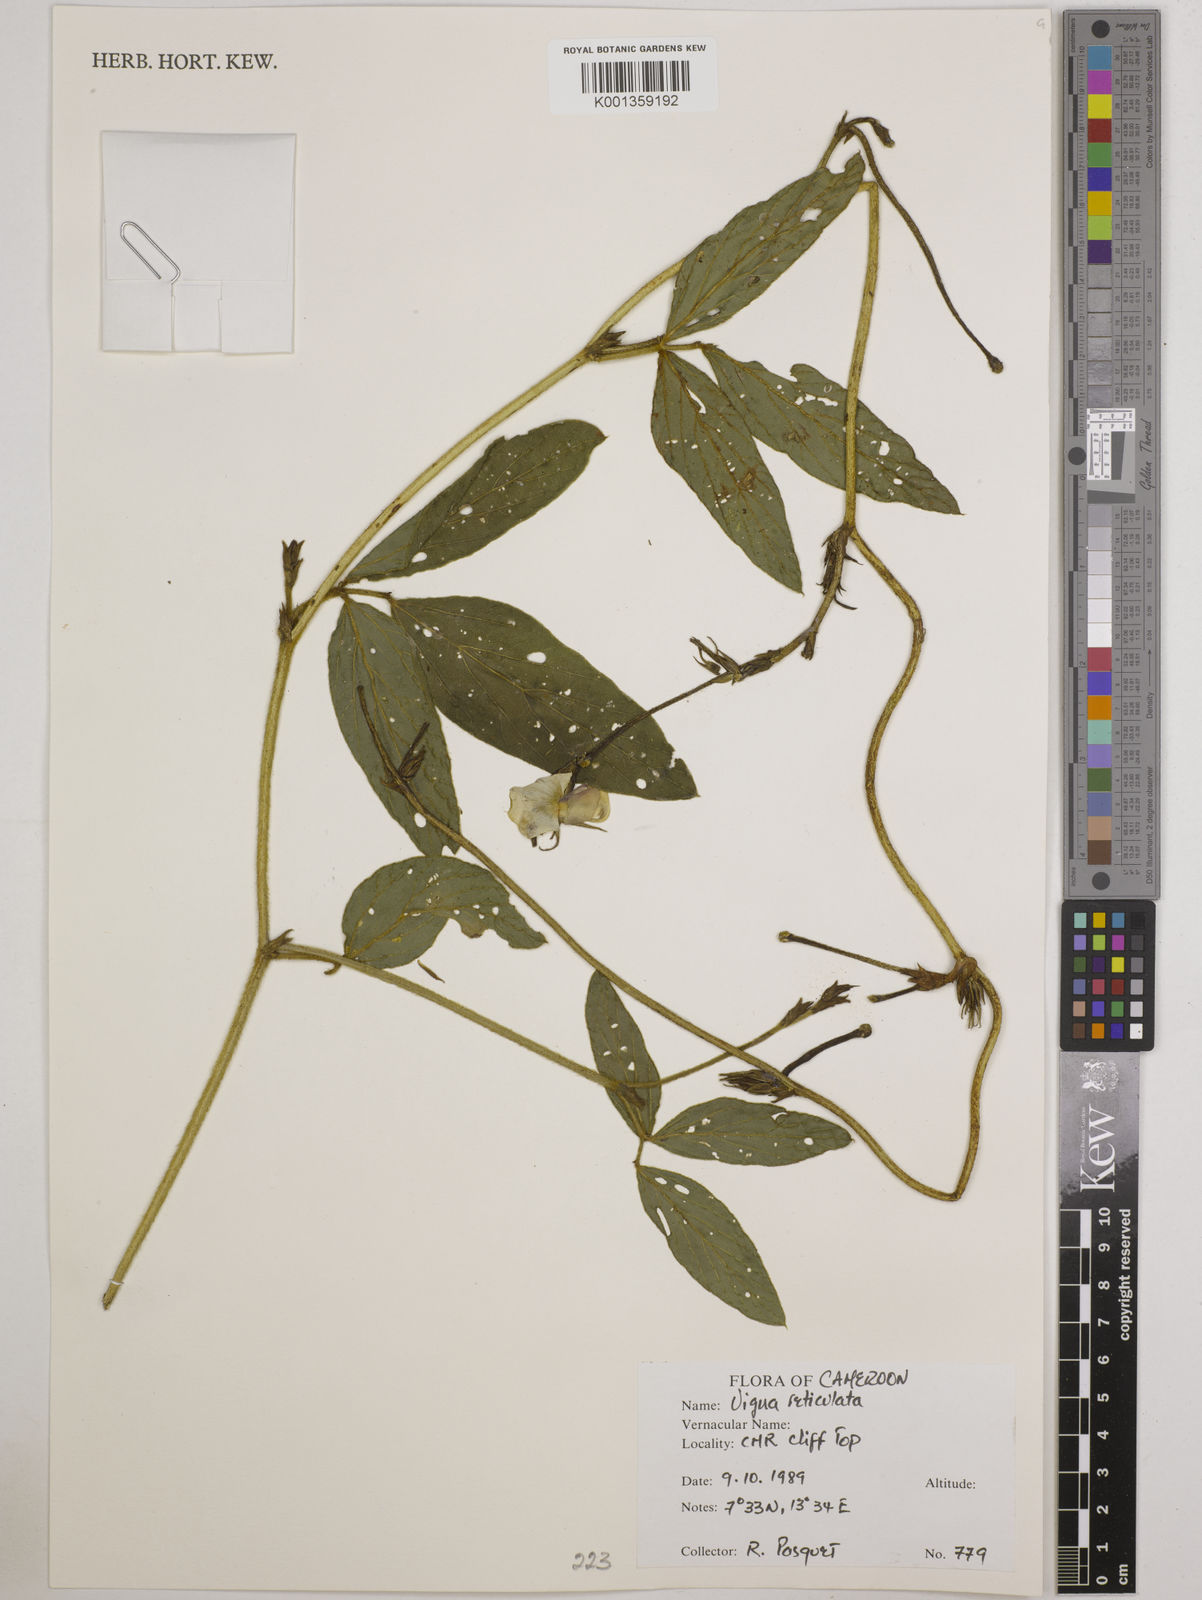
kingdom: Plantae
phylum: Tracheophyta
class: Magnoliopsida
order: Fabales
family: Fabaceae
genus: Vigna
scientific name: Vigna reticulata
